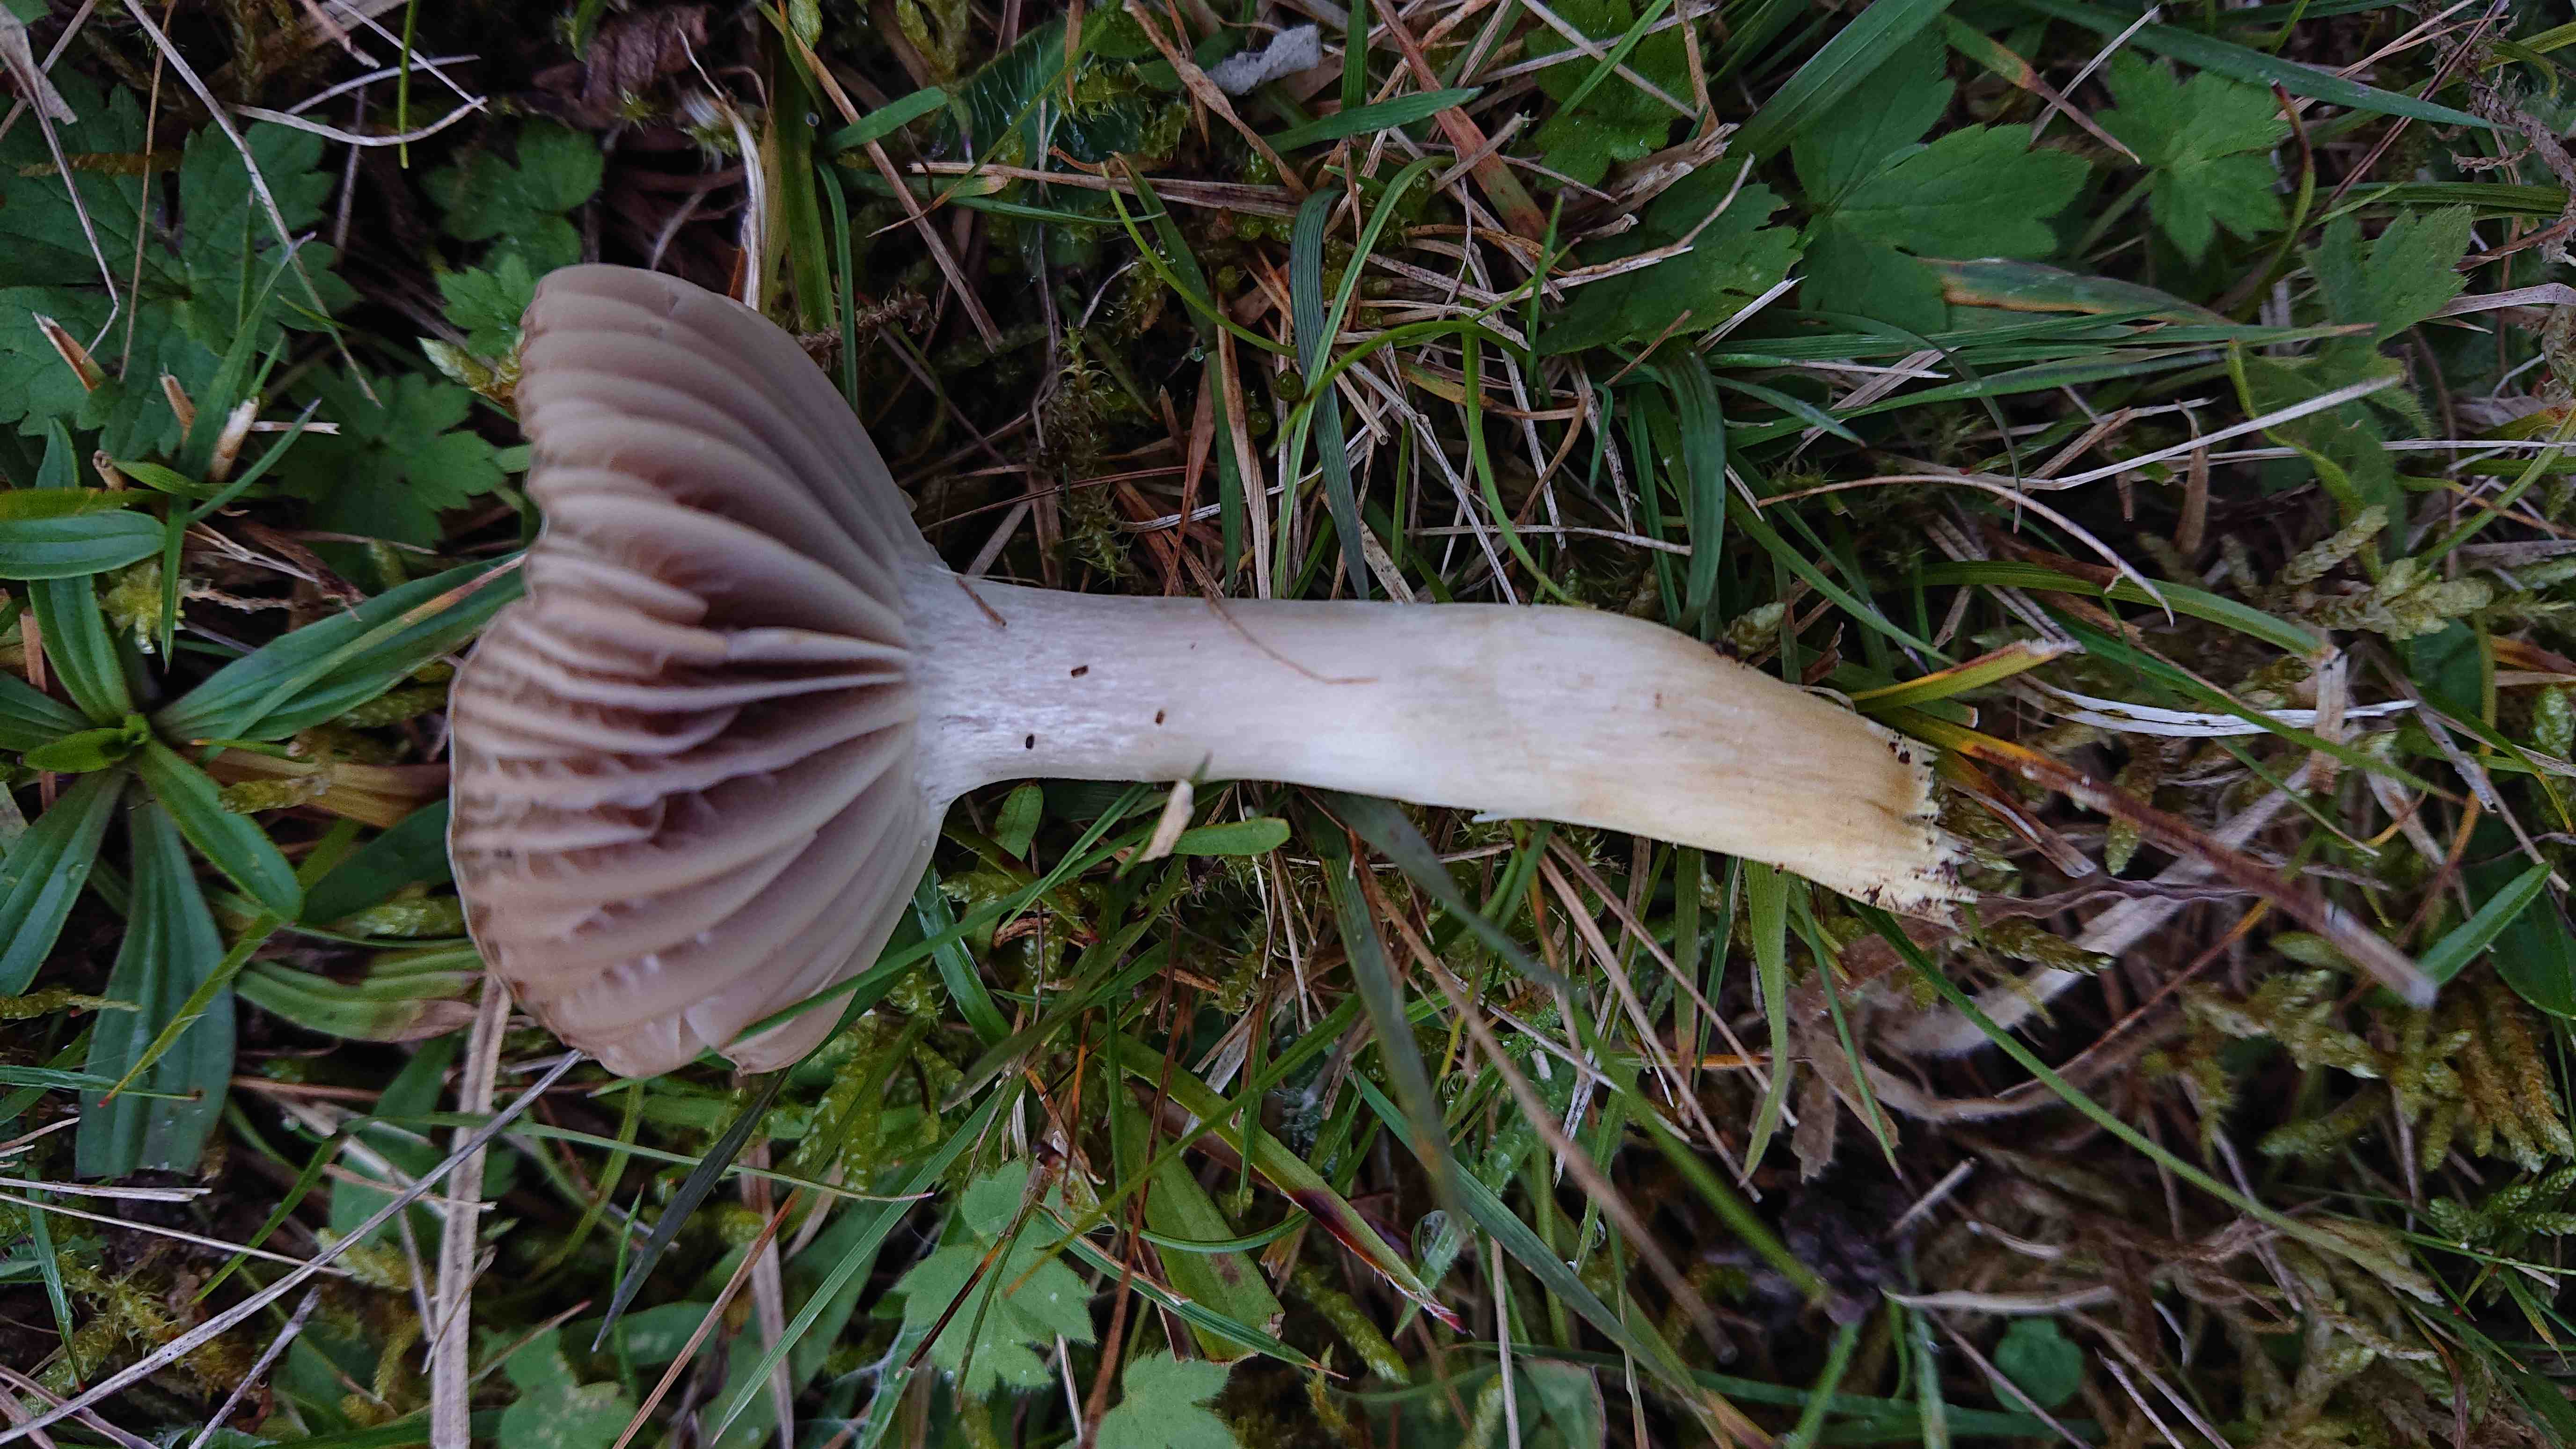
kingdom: Fungi
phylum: Basidiomycota
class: Agaricomycetes
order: Agaricales
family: Hygrophoraceae
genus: Cuphophyllus
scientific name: Cuphophyllus flavipes
